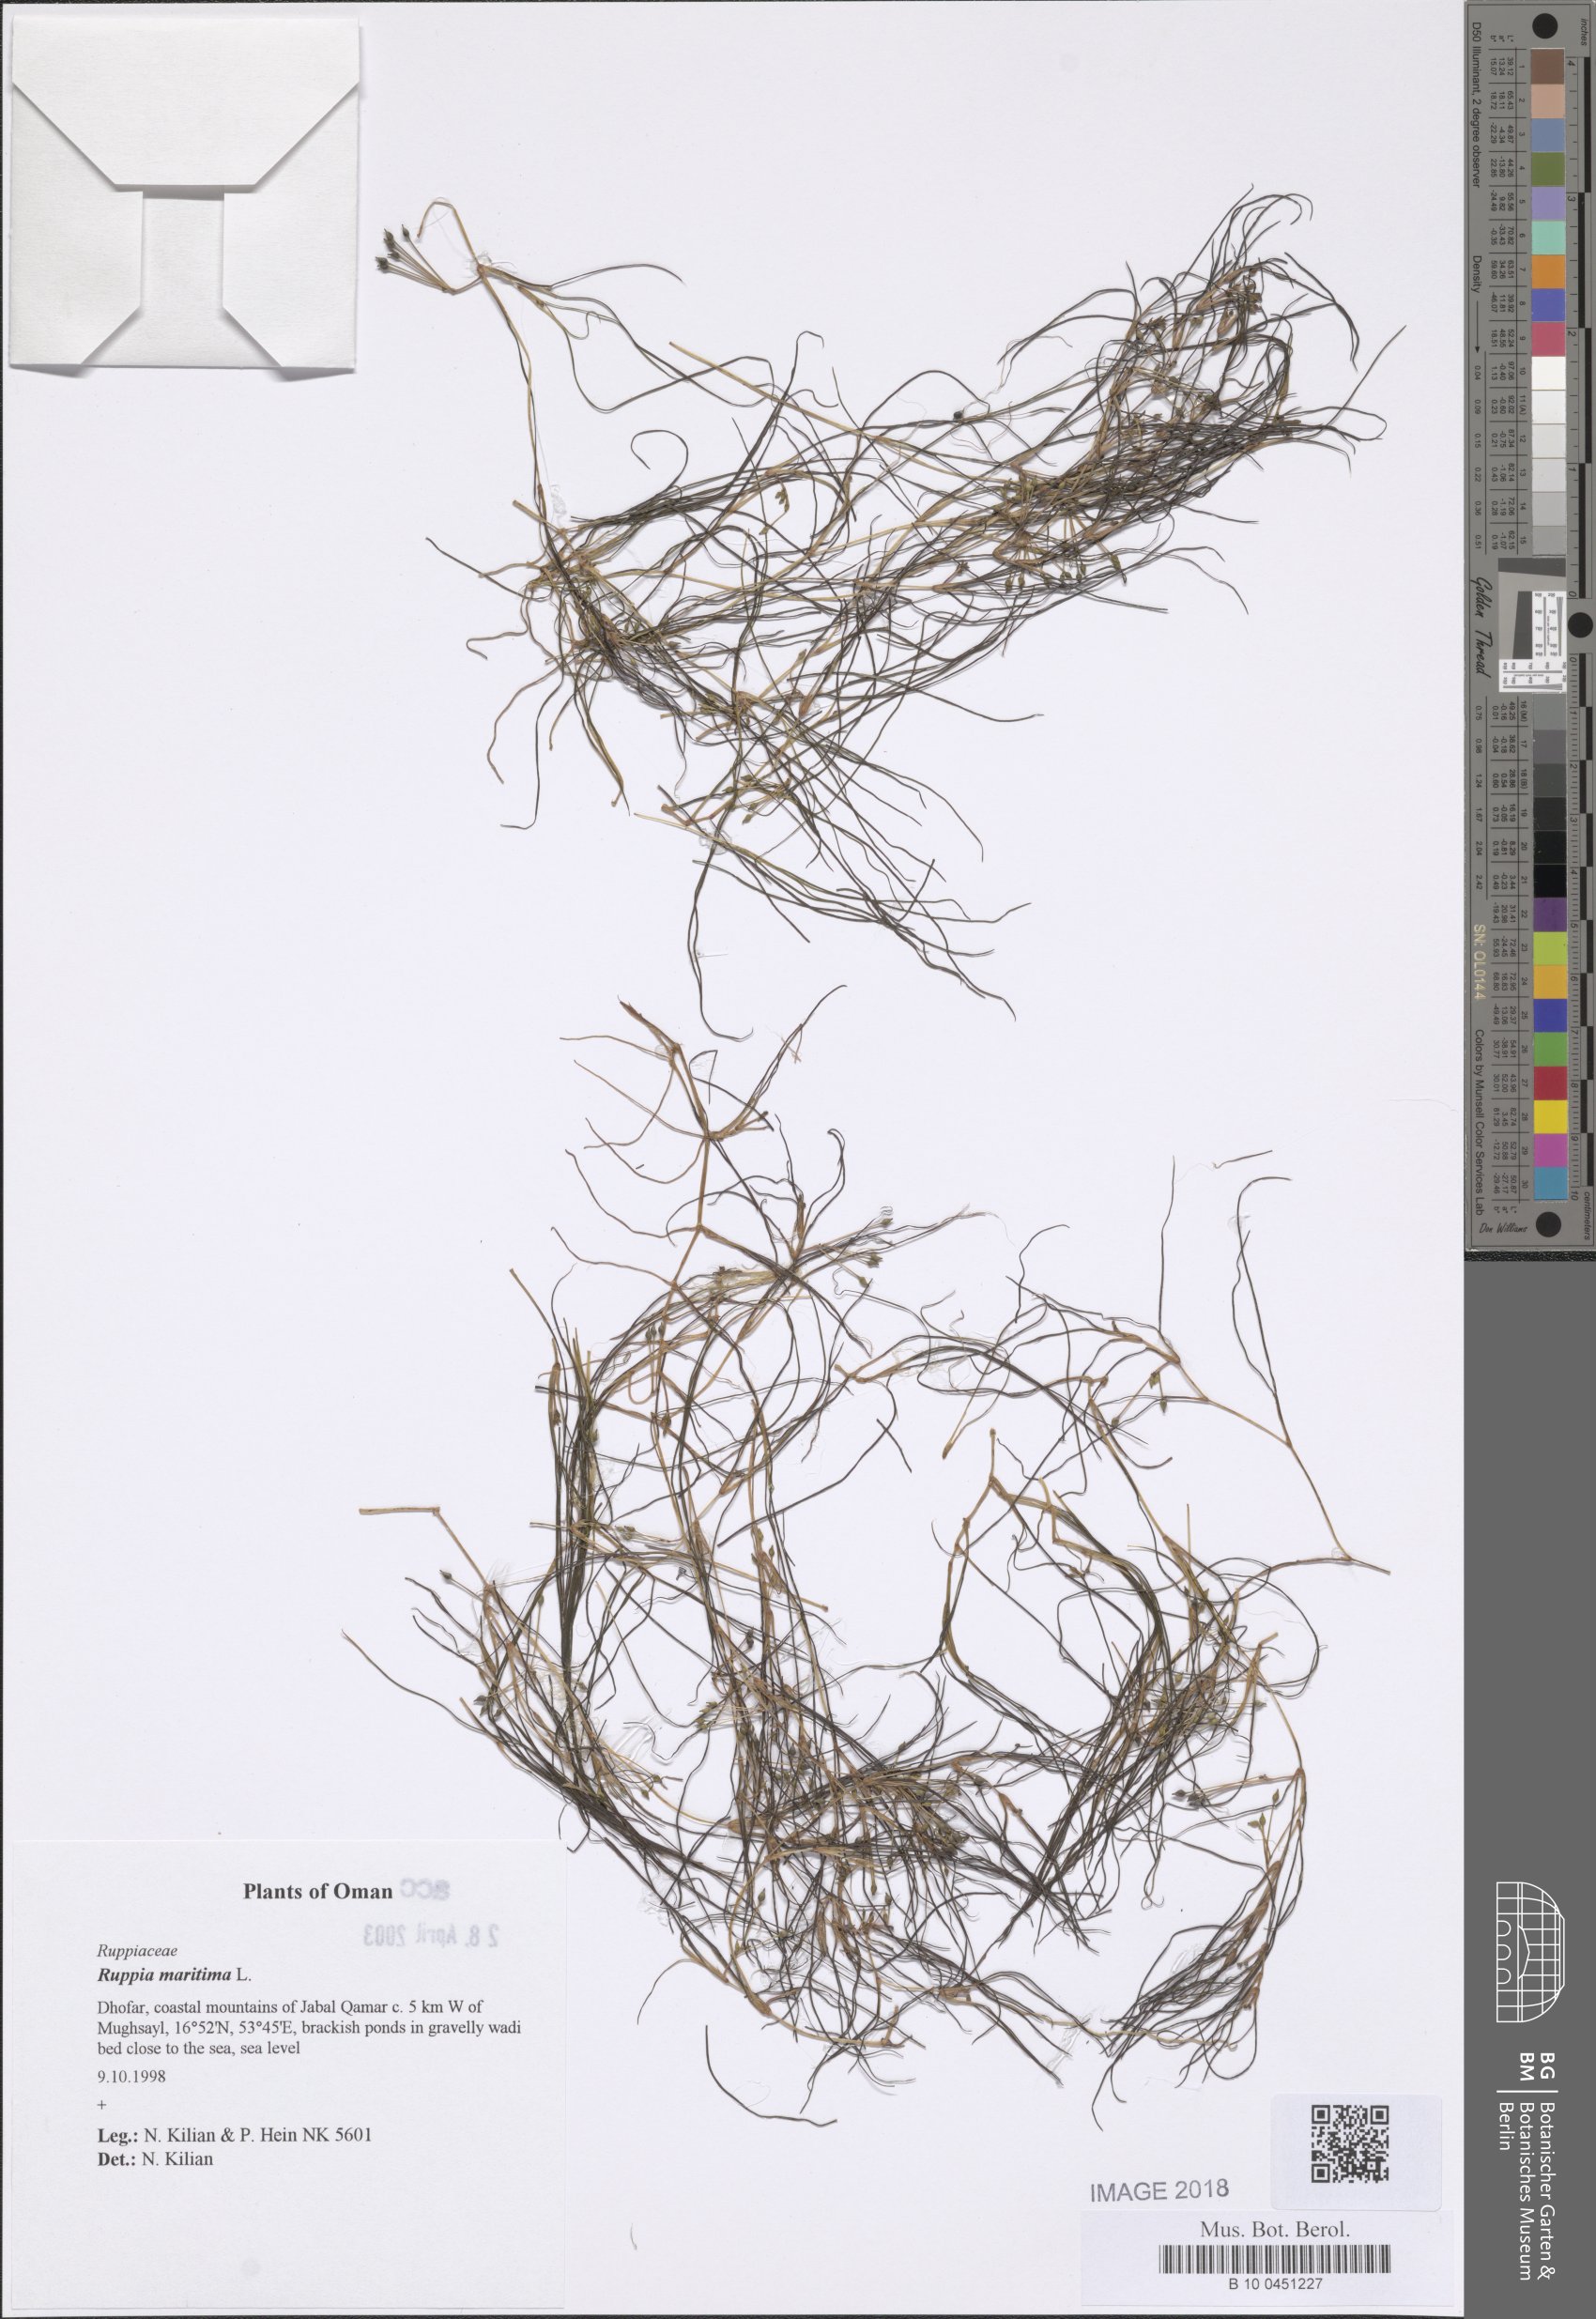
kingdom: Plantae
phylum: Tracheophyta
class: Liliopsida
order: Alismatales
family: Ruppiaceae
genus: Ruppia
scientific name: Ruppia maritima
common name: Beaked tasselweed
